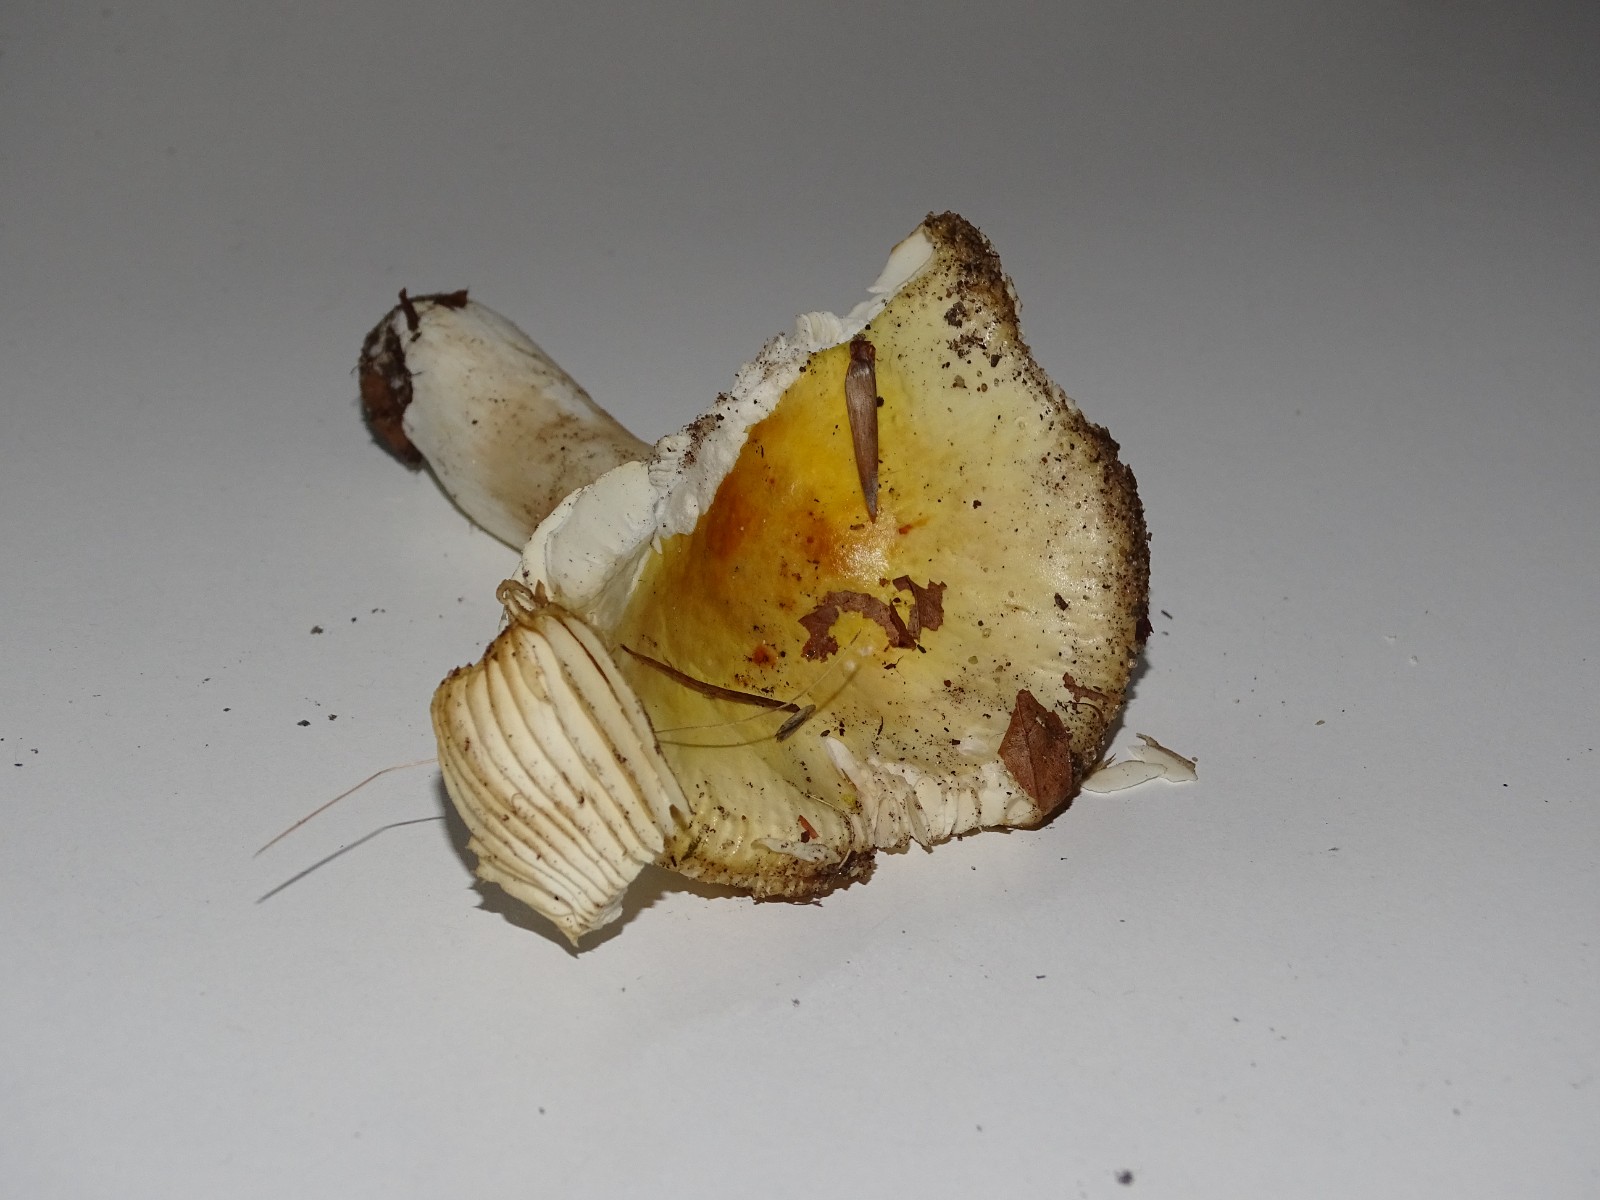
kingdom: Fungi
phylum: Basidiomycota
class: Agaricomycetes
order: Russulales
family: Russulaceae
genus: Russula
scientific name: Russula farinipes
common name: gul kam-skørhat
